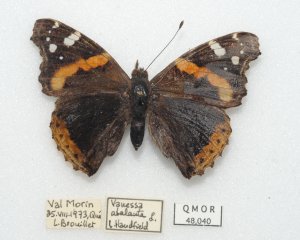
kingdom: Animalia
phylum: Arthropoda
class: Insecta
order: Lepidoptera
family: Nymphalidae
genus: Vanessa
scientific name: Vanessa atalanta
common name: Red Admiral
